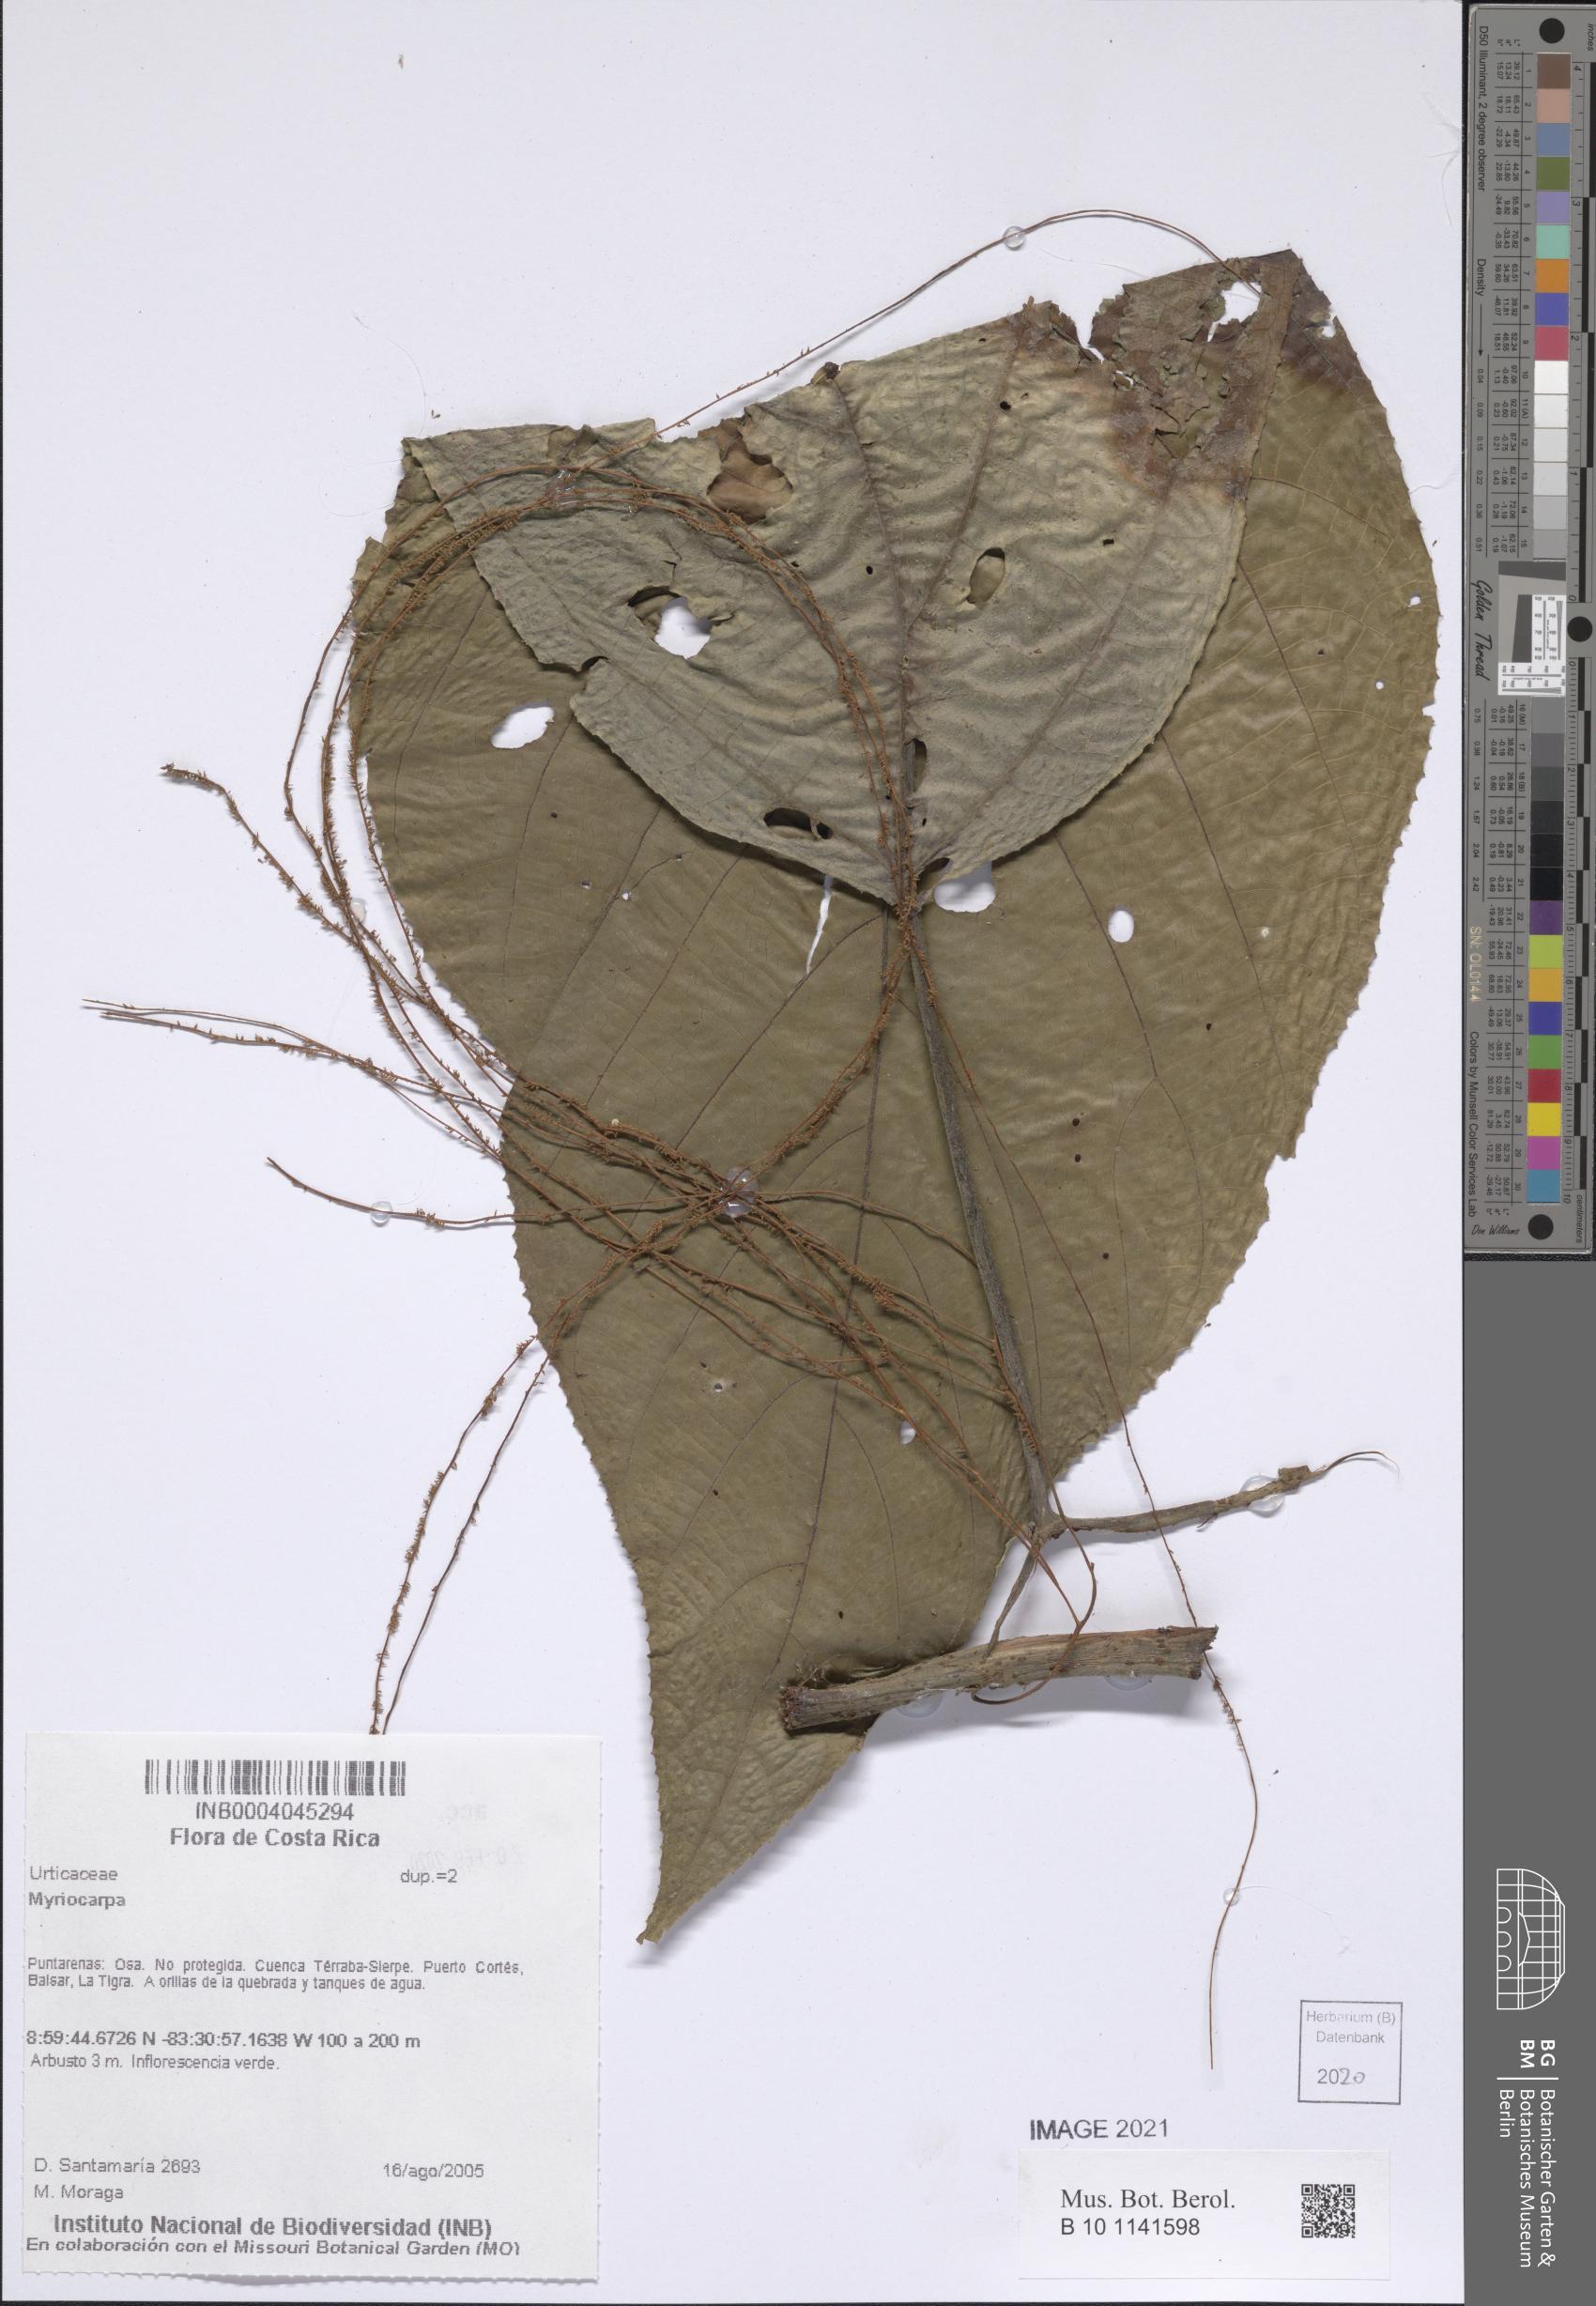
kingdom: Plantae
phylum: Tracheophyta
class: Magnoliopsida
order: Rosales
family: Urticaceae
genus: Myriocarpa
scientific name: Myriocarpa
